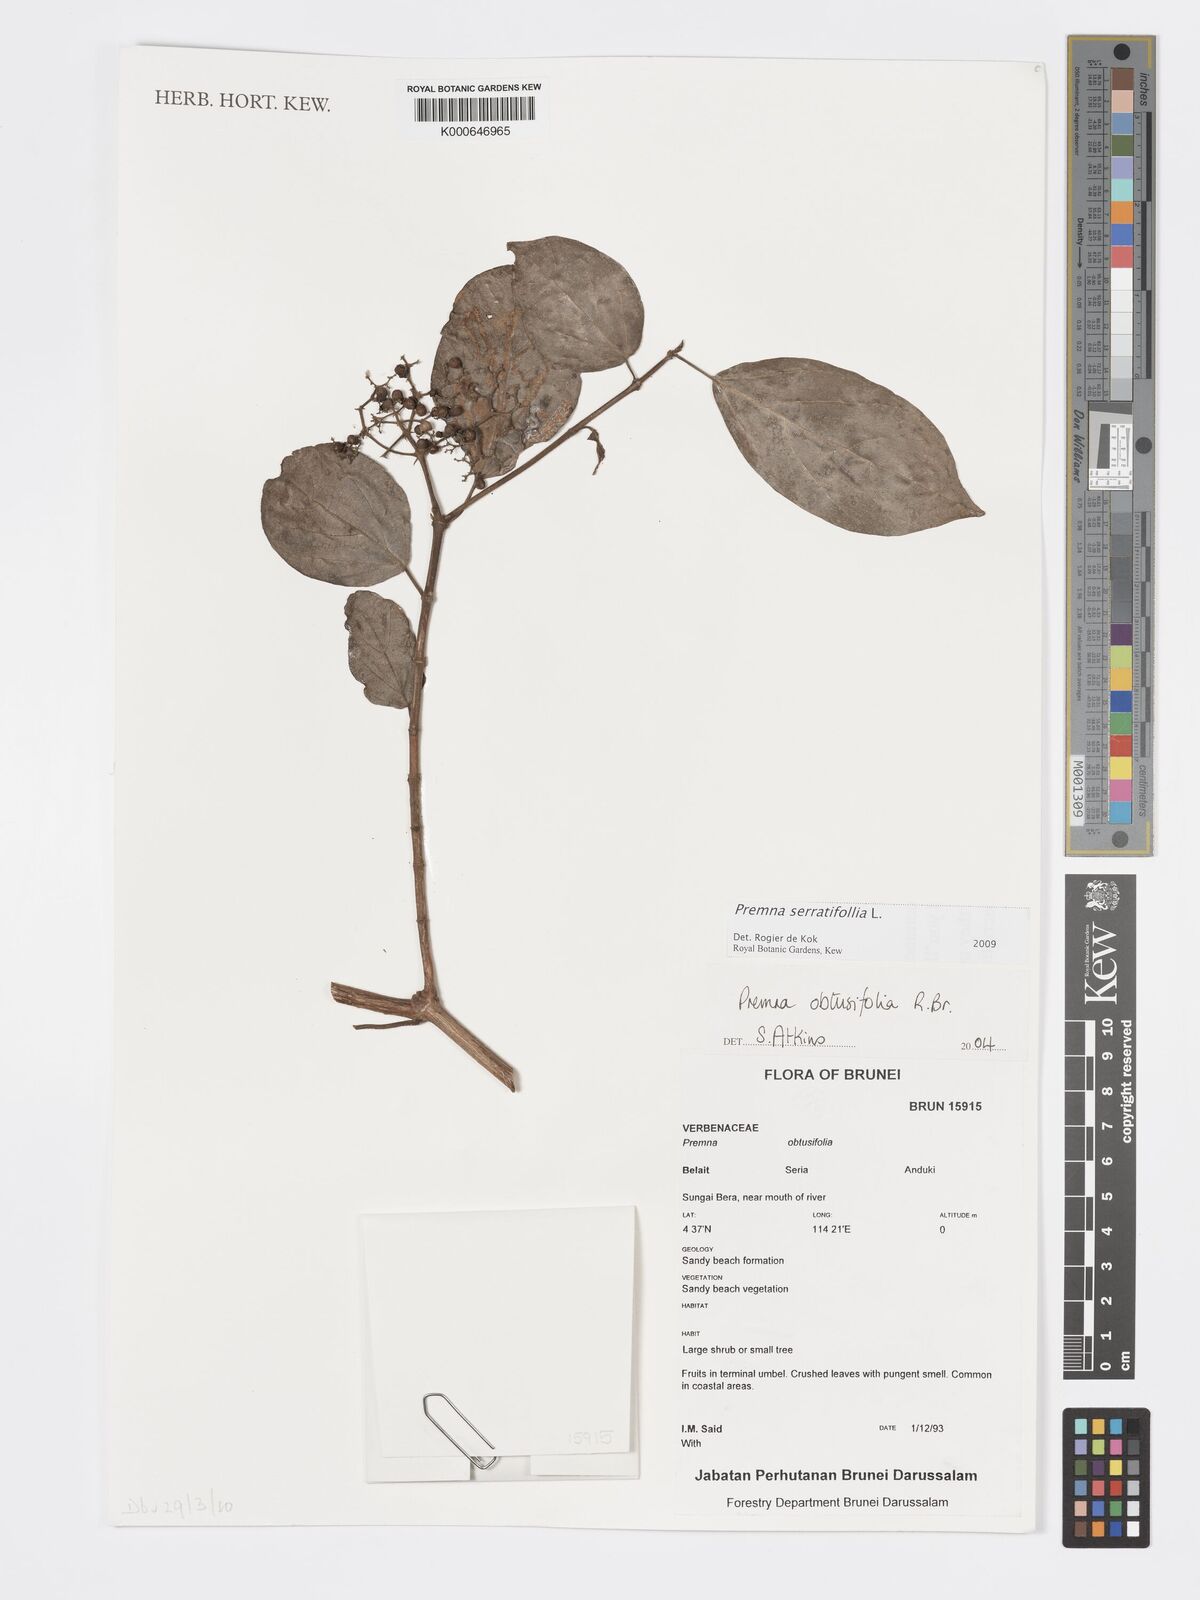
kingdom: Plantae
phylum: Tracheophyta
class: Magnoliopsida
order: Lamiales
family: Lamiaceae
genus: Premna
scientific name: Premna serratifolia
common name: Bastard guelder
